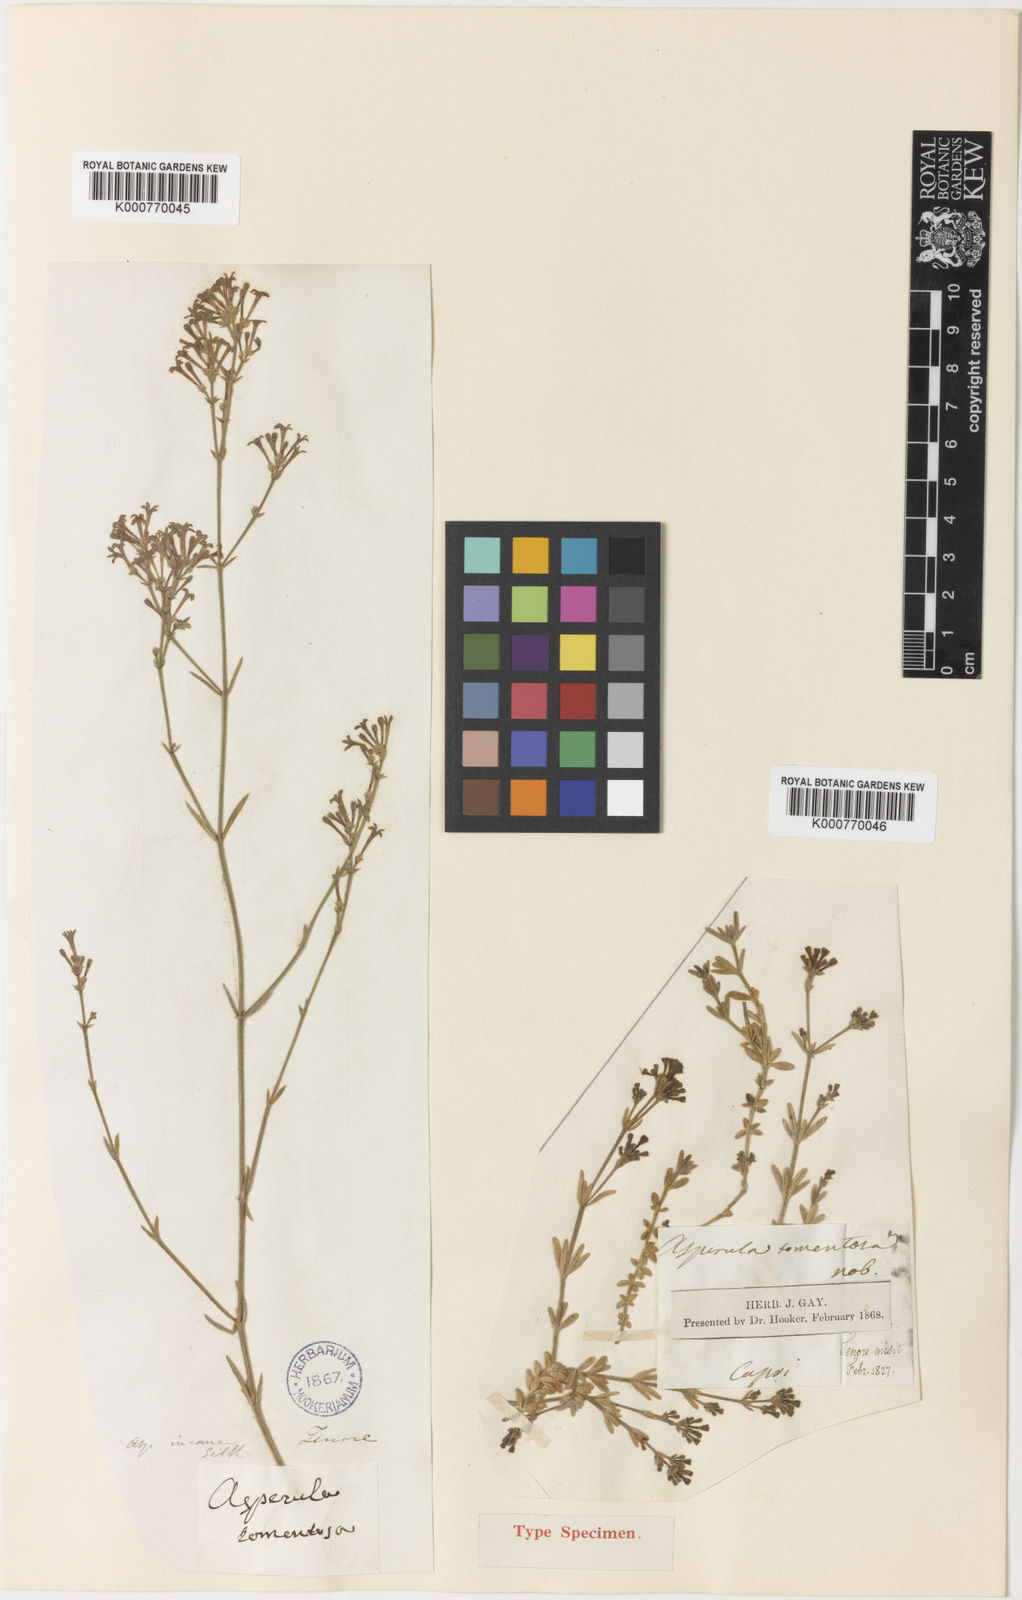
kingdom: Plantae
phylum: Tracheophyta
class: Magnoliopsida
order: Gentianales
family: Rubiaceae
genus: Hexaphylla
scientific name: Hexaphylla pubescens
